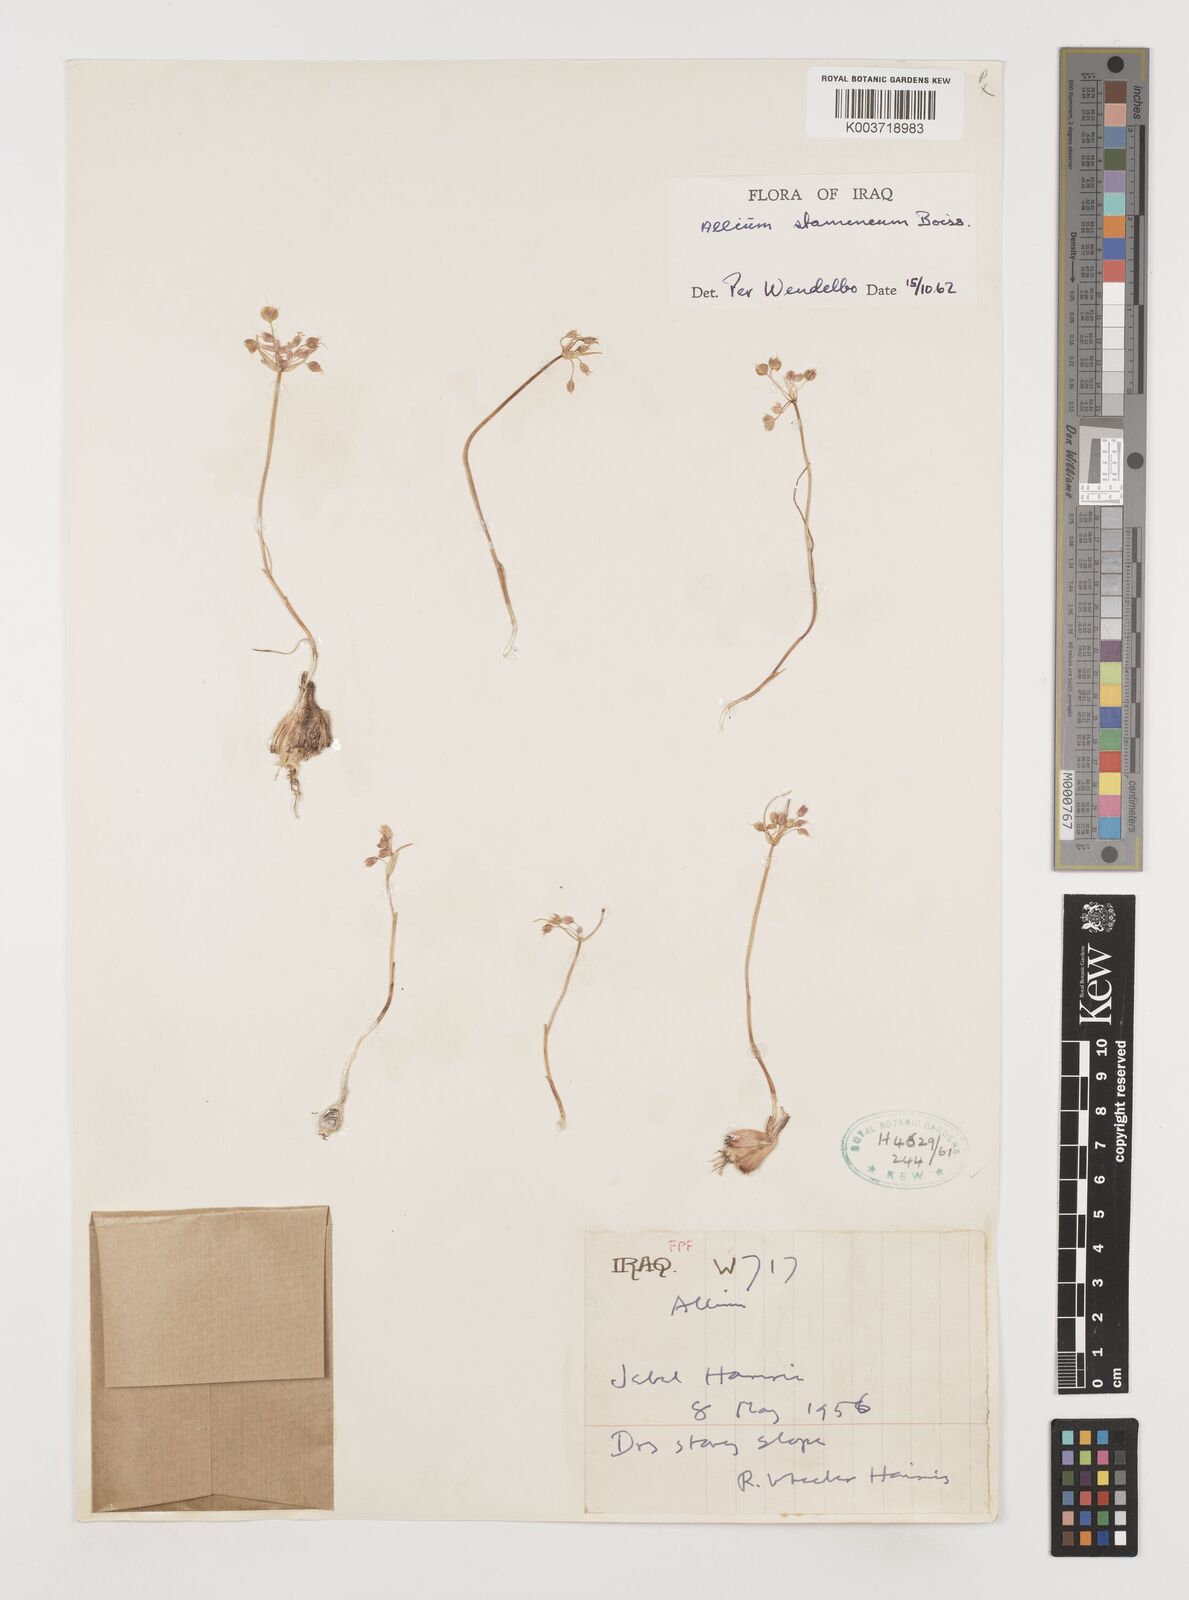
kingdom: Plantae
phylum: Tracheophyta
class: Liliopsida
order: Asparagales
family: Amaryllidaceae
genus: Allium
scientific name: Allium stamineum
